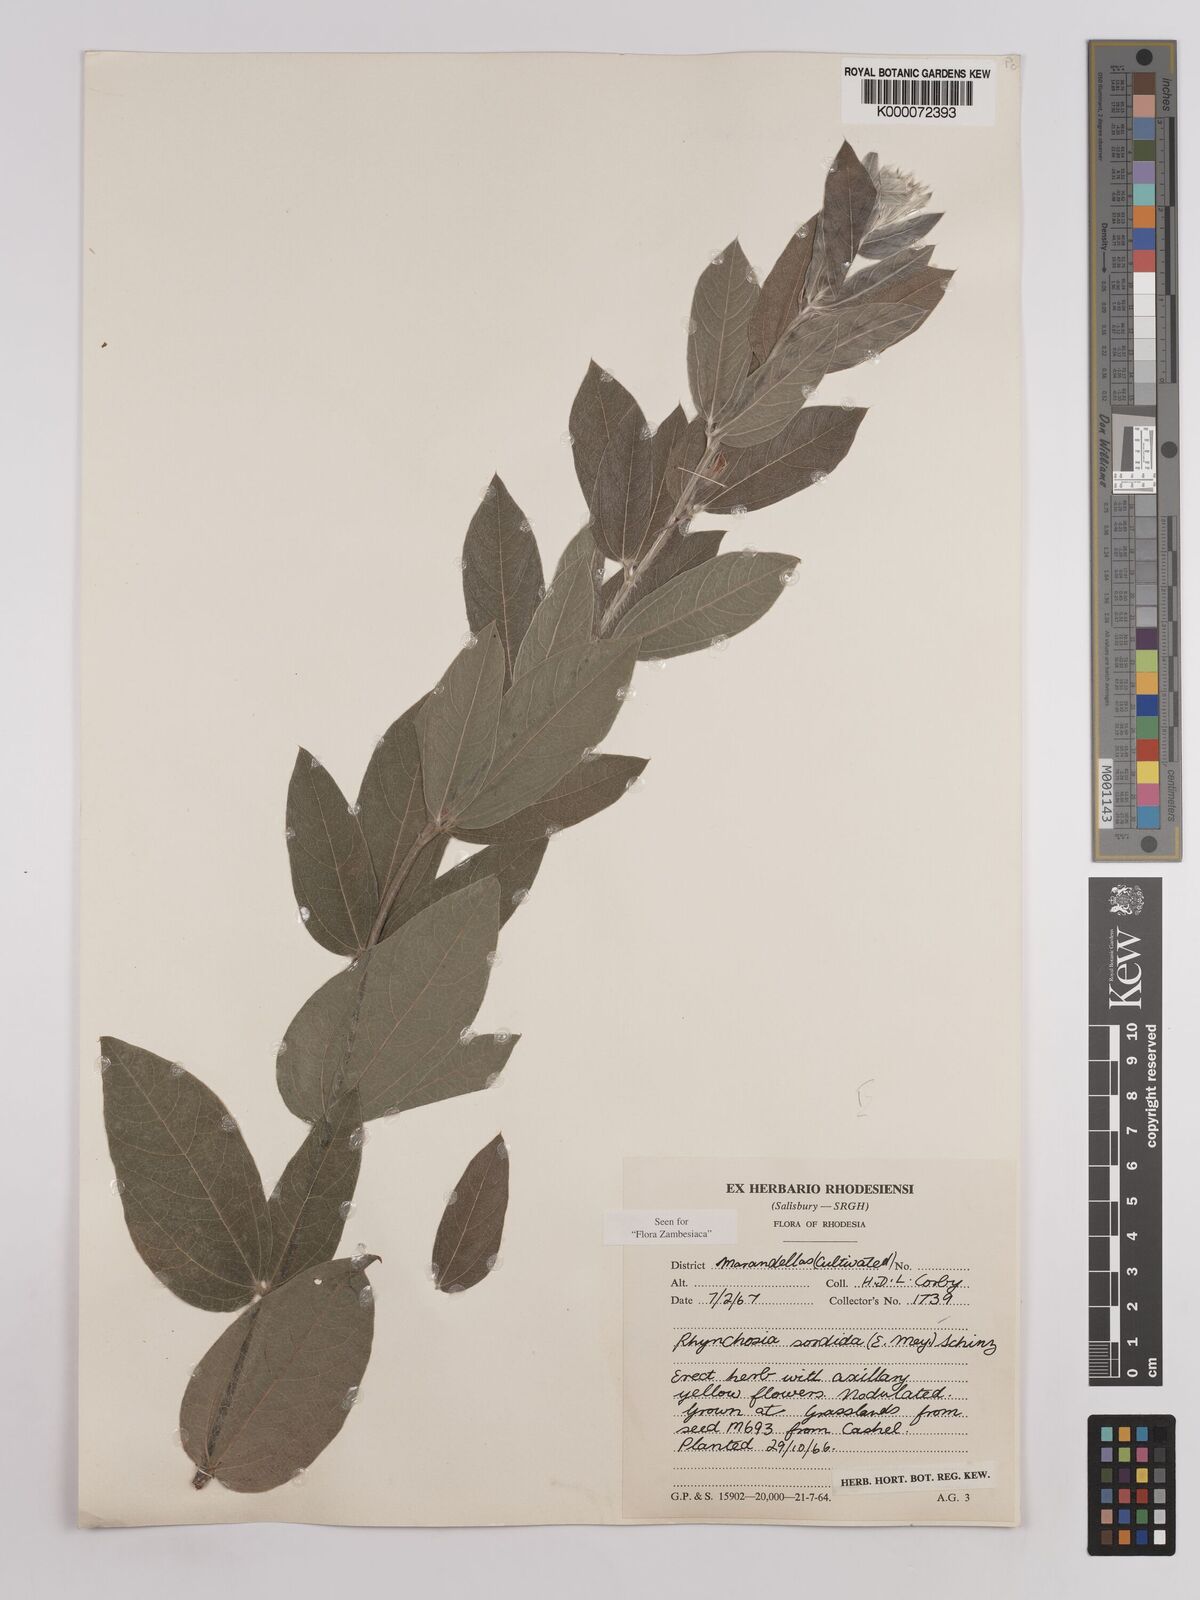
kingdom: Plantae
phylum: Tracheophyta
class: Magnoliopsida
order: Fabales
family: Fabaceae
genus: Rhynchosia
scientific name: Rhynchosia sordida
